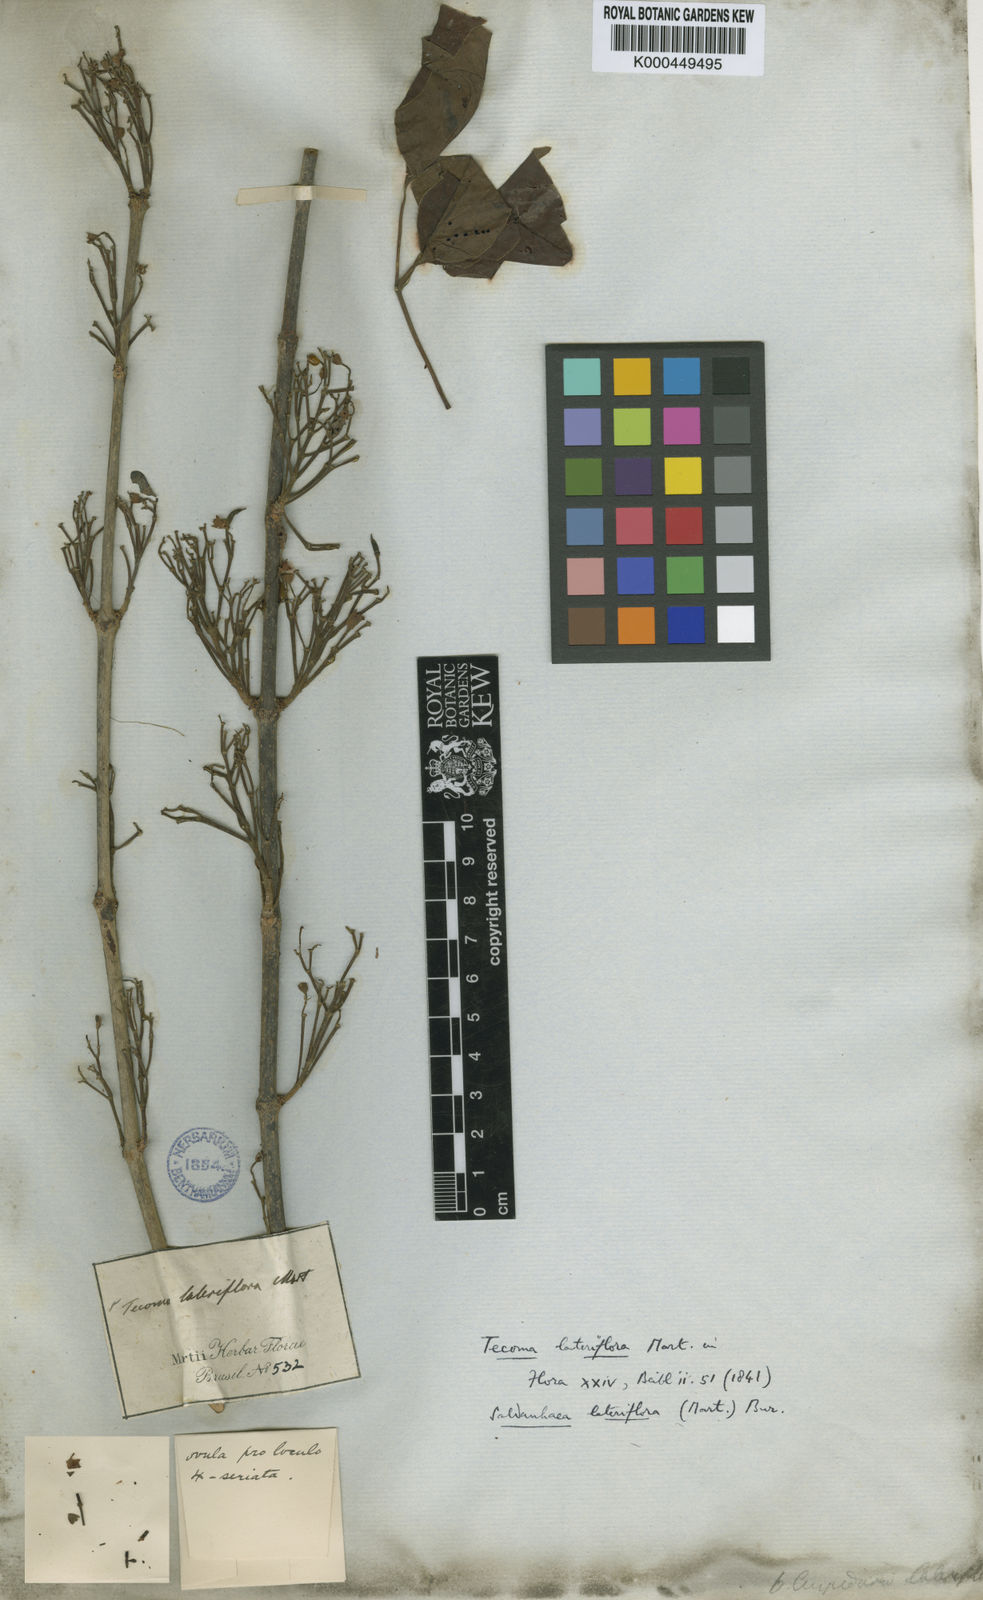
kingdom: Plantae
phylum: Tracheophyta
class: Magnoliopsida
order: Lamiales
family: Bignoniaceae
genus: Cuspidaria
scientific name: Cuspidaria lateriflora
